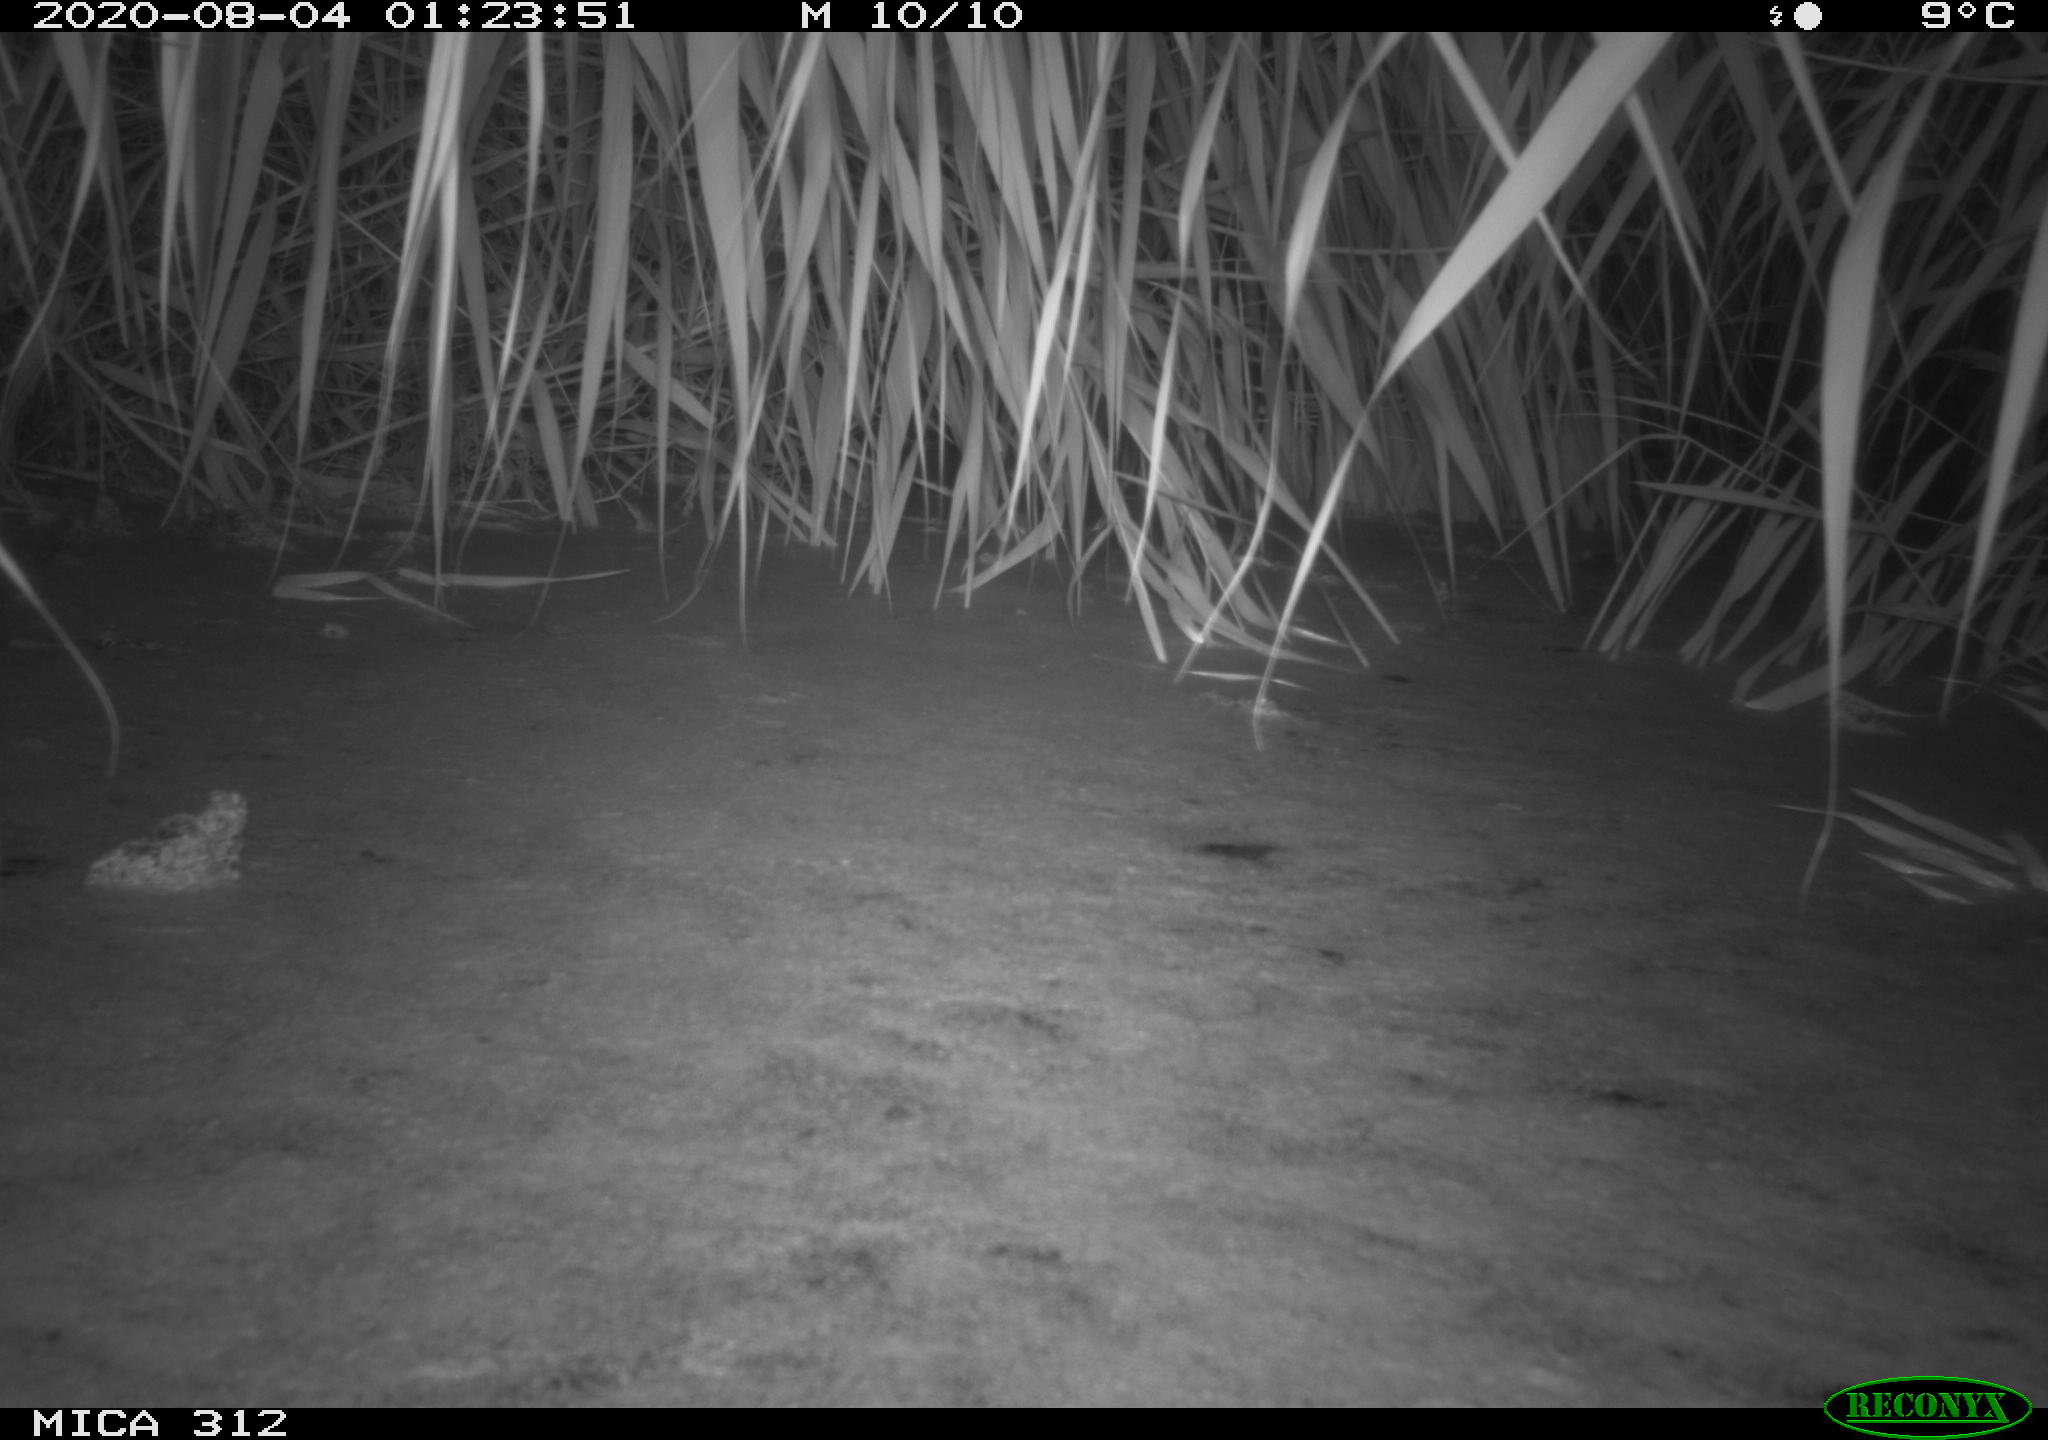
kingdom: Animalia
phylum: Chordata
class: Mammalia
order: Rodentia
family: Muridae
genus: Rattus
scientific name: Rattus norvegicus
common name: Brown rat
